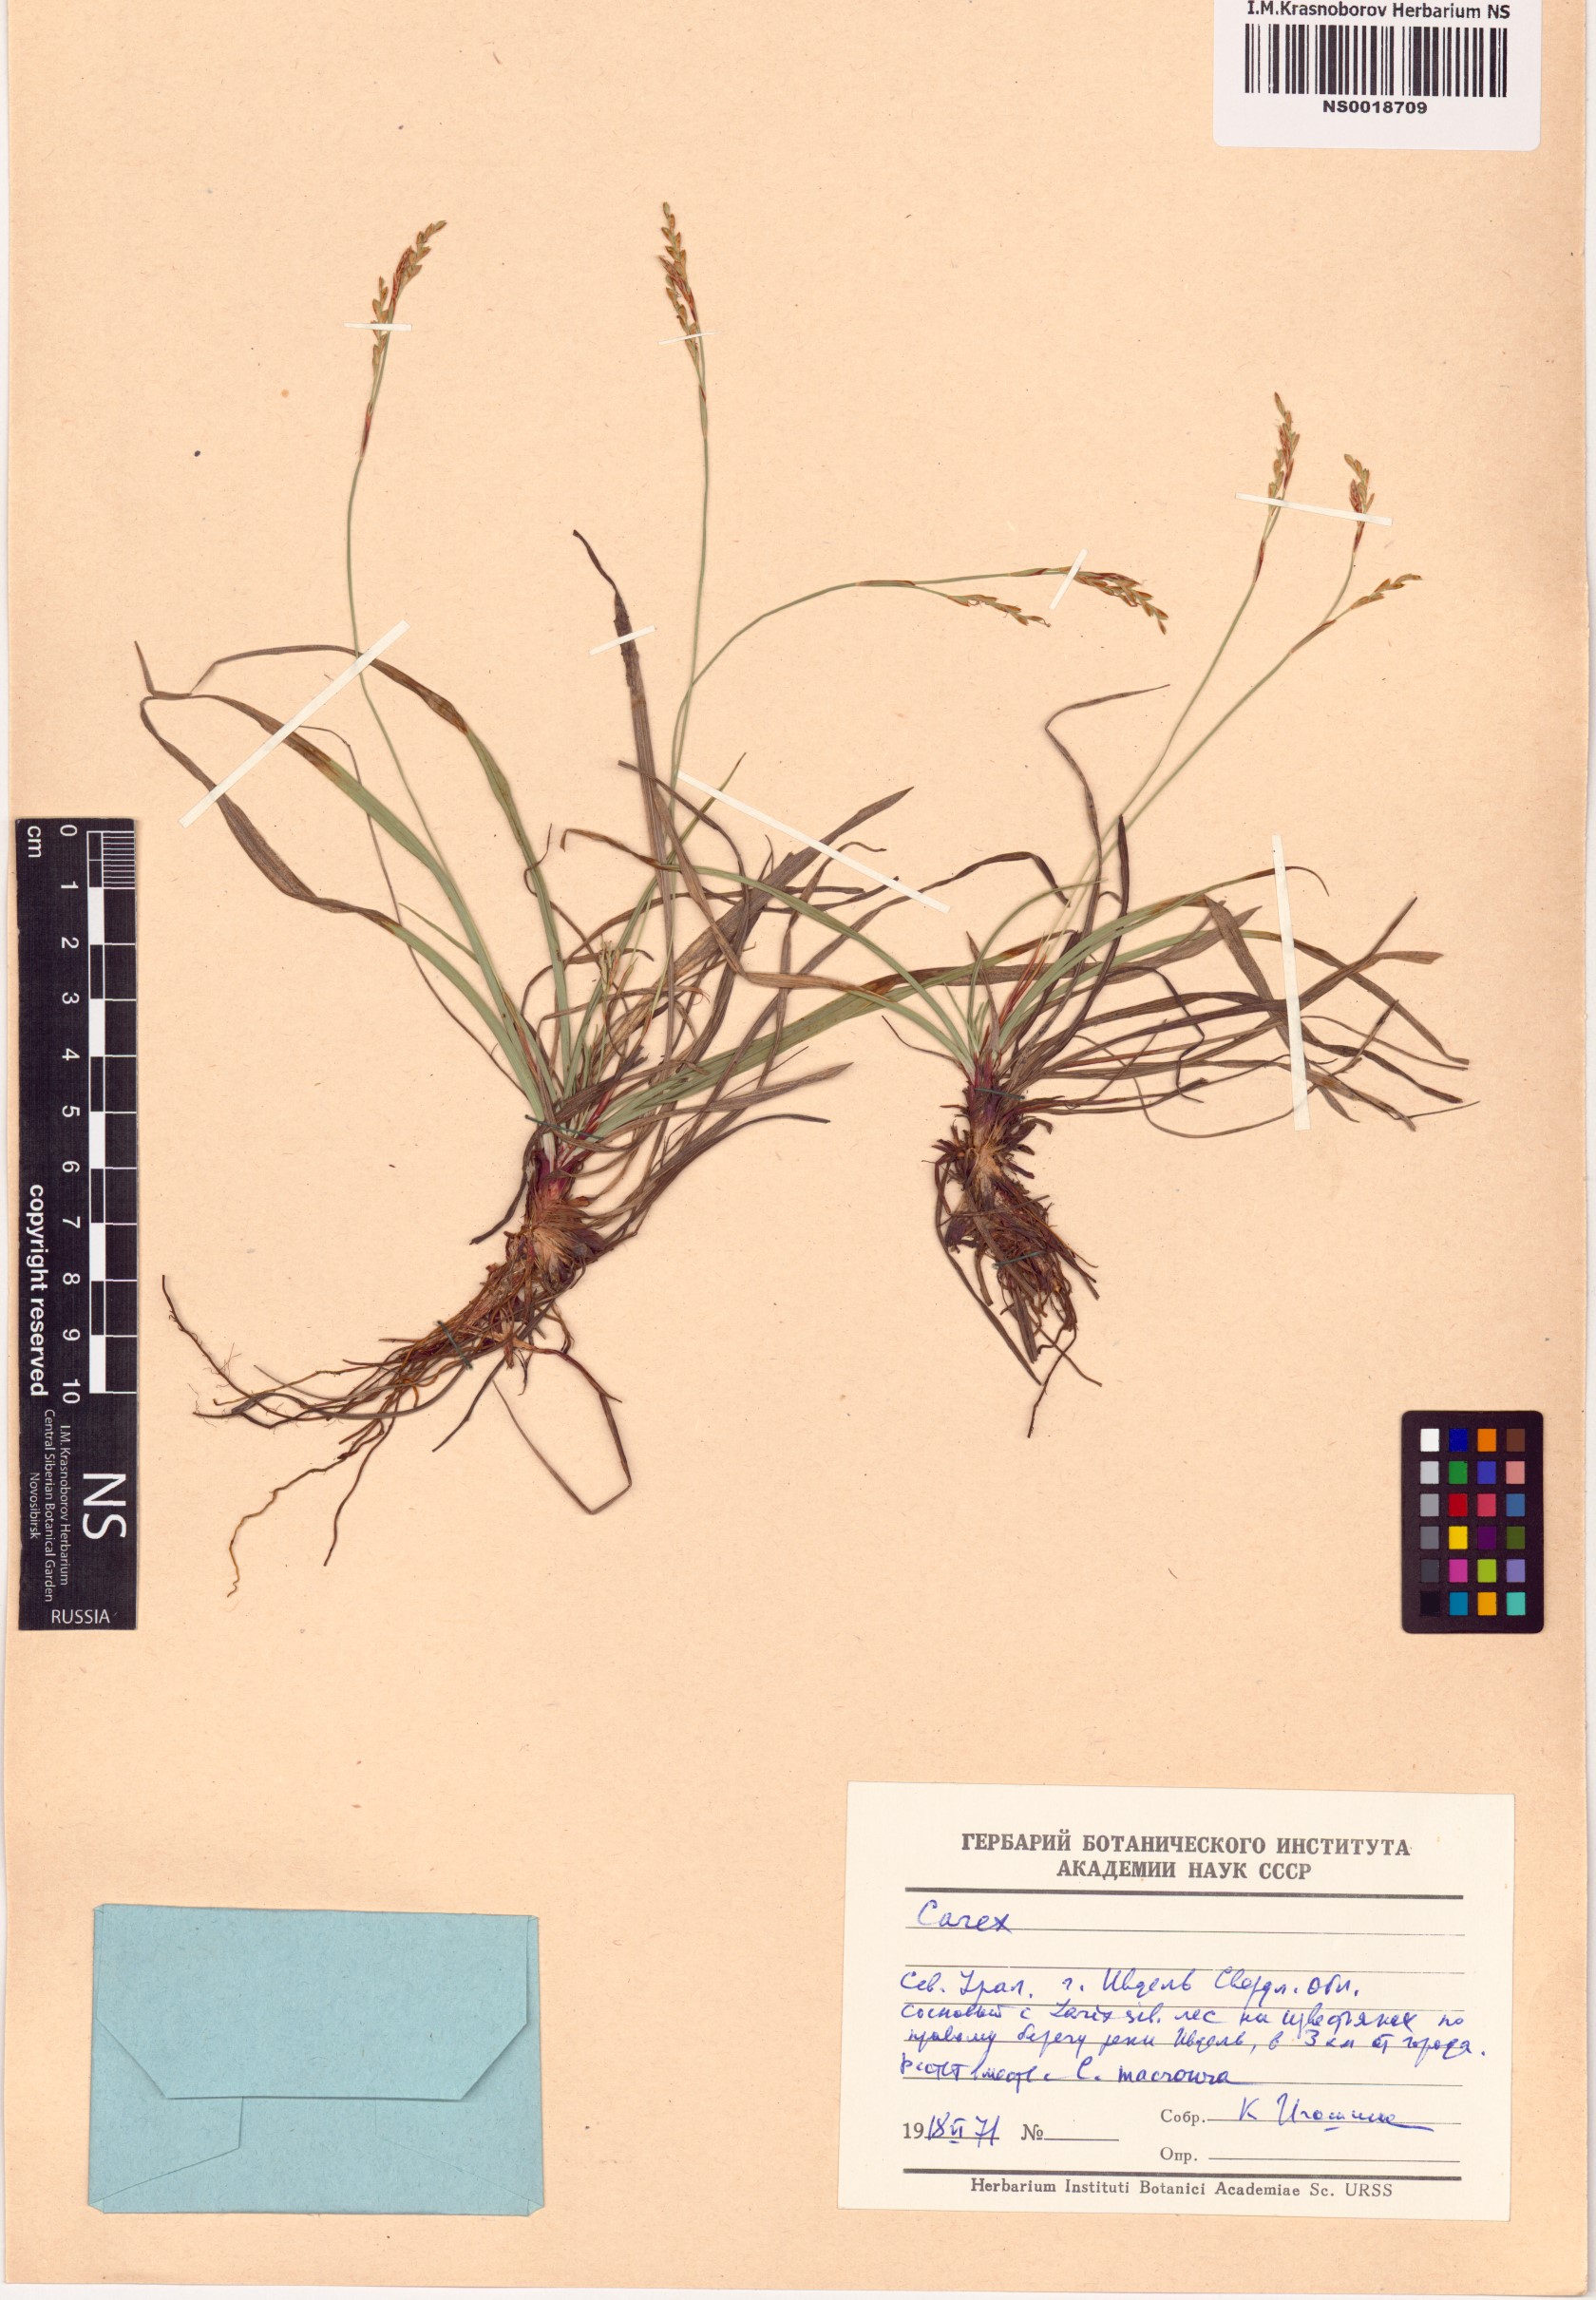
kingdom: Plantae
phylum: Tracheophyta
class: Liliopsida
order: Poales
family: Cyperaceae
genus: Carex
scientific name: Carex digitata
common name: Fingered sedge
